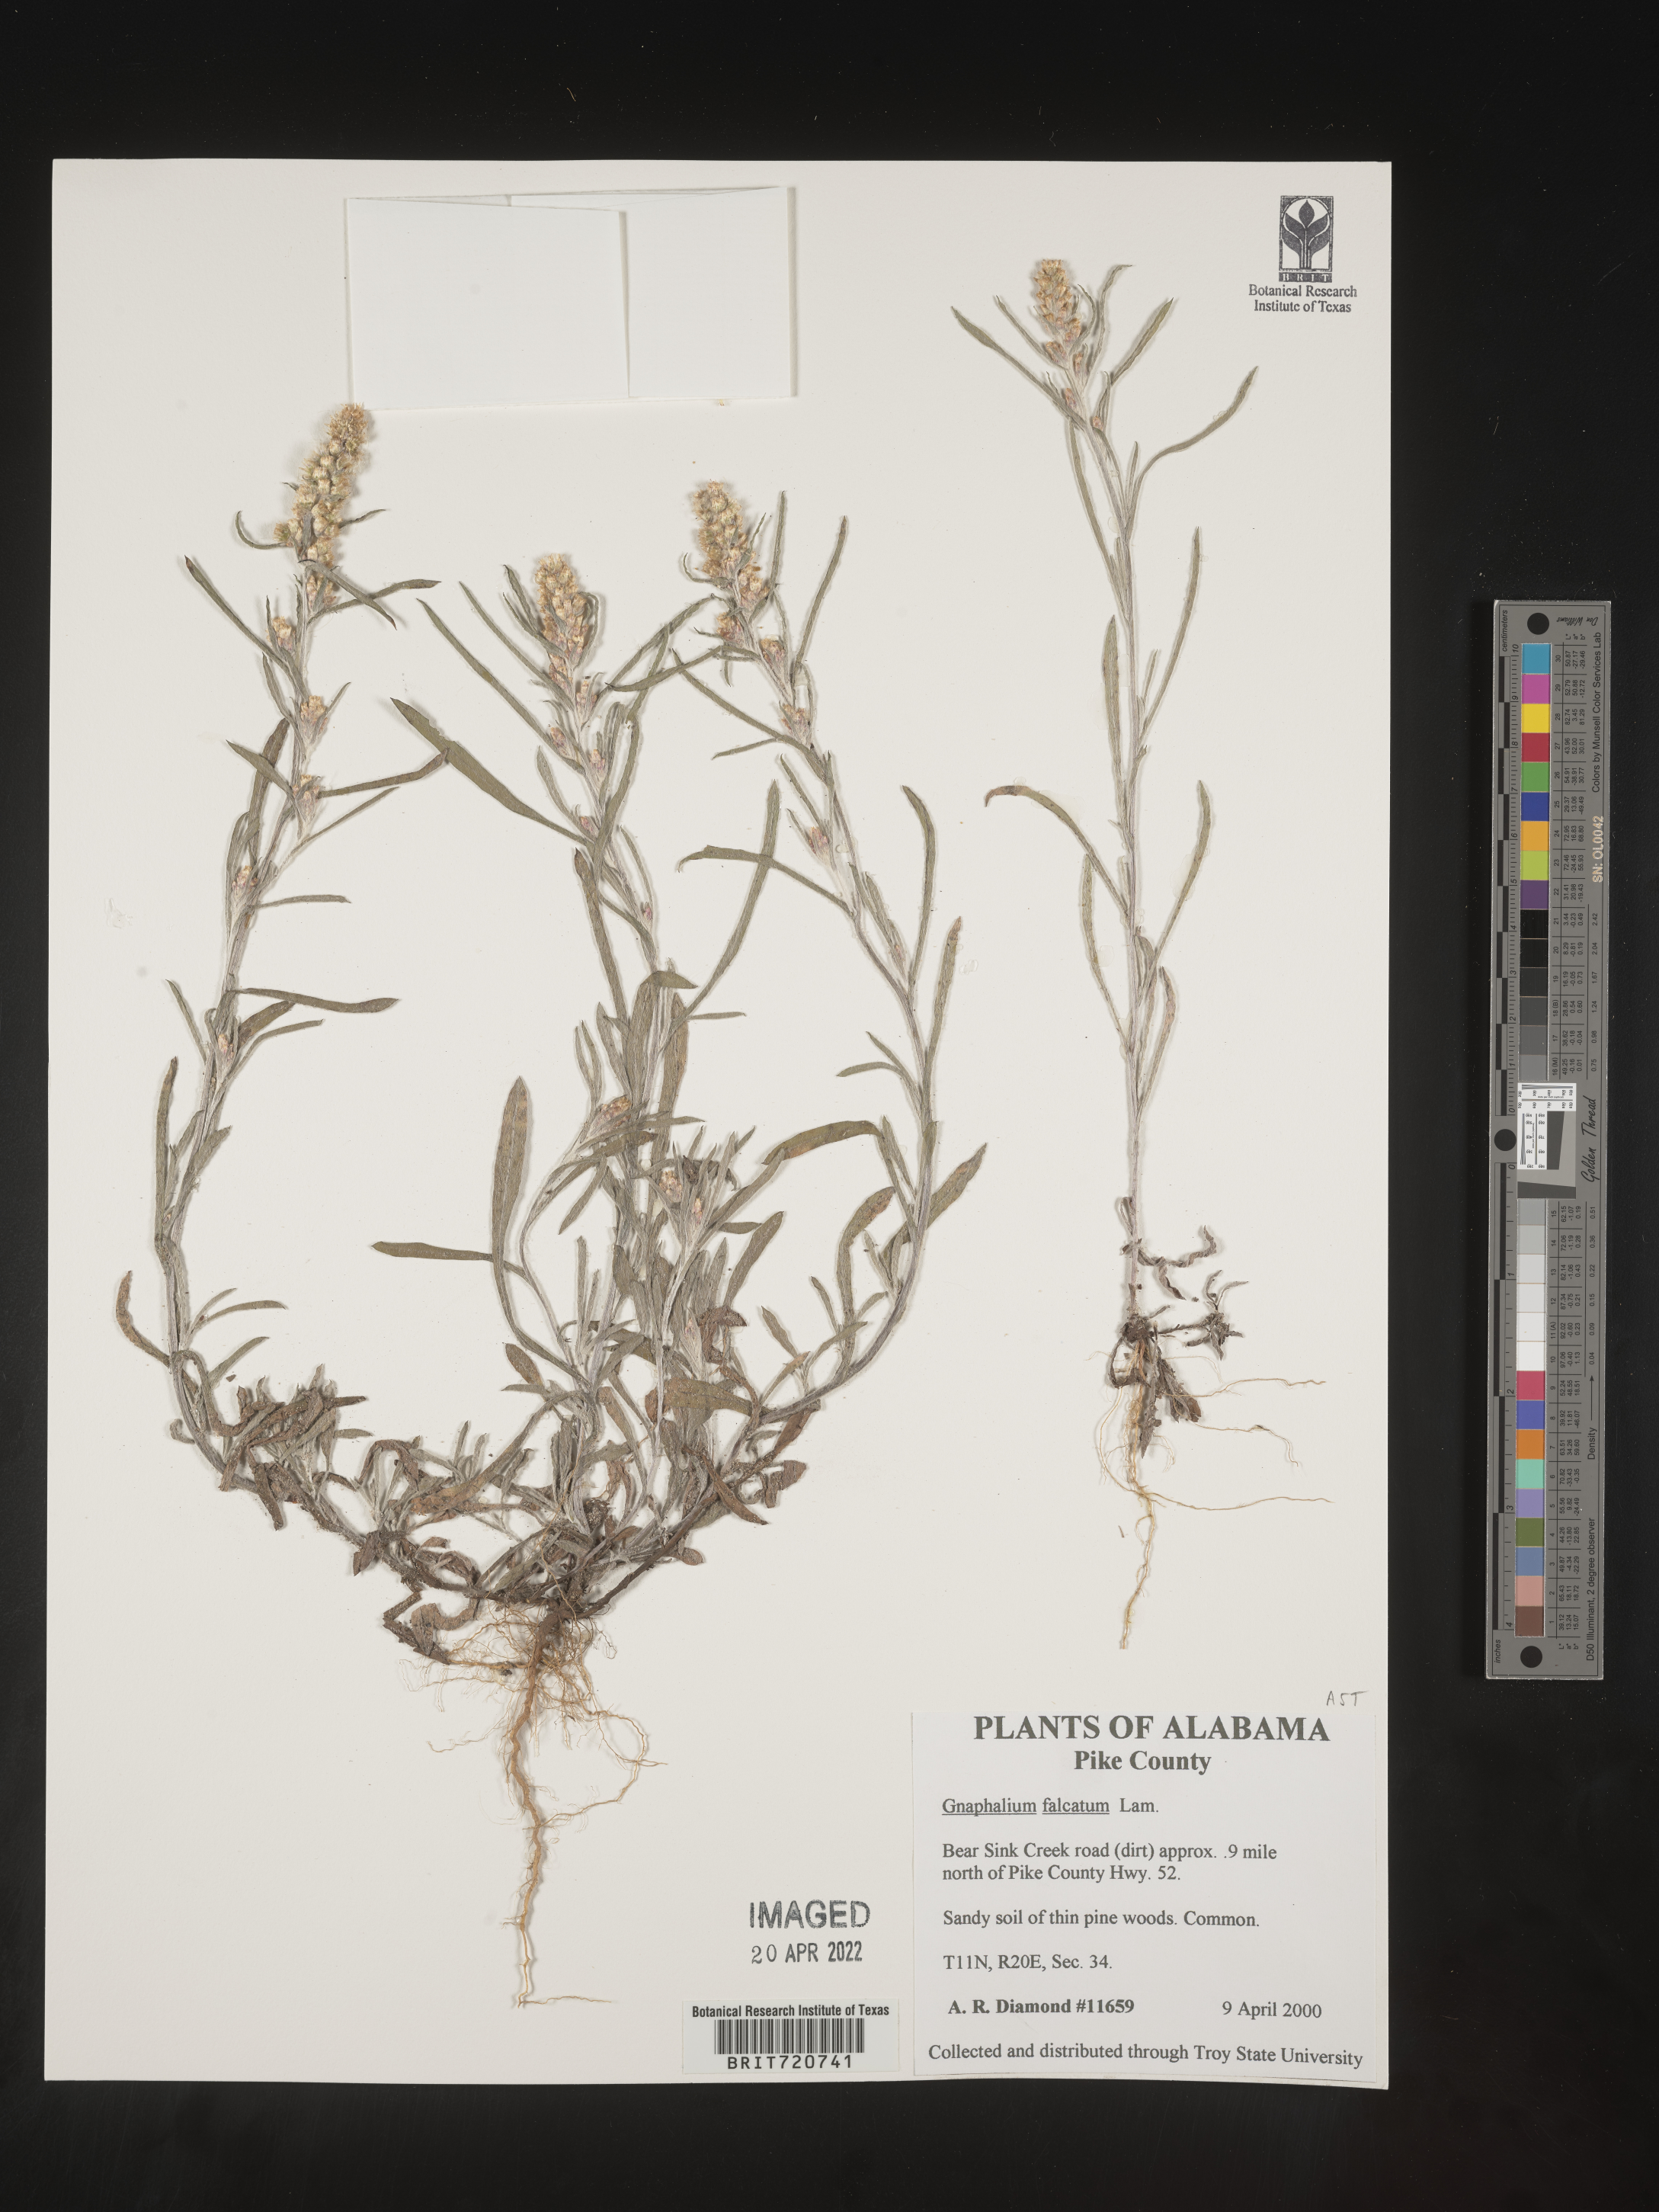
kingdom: Plantae
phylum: Tracheophyta
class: Magnoliopsida
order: Asterales
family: Asteraceae
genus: Gnaphalium
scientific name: Gnaphalium
